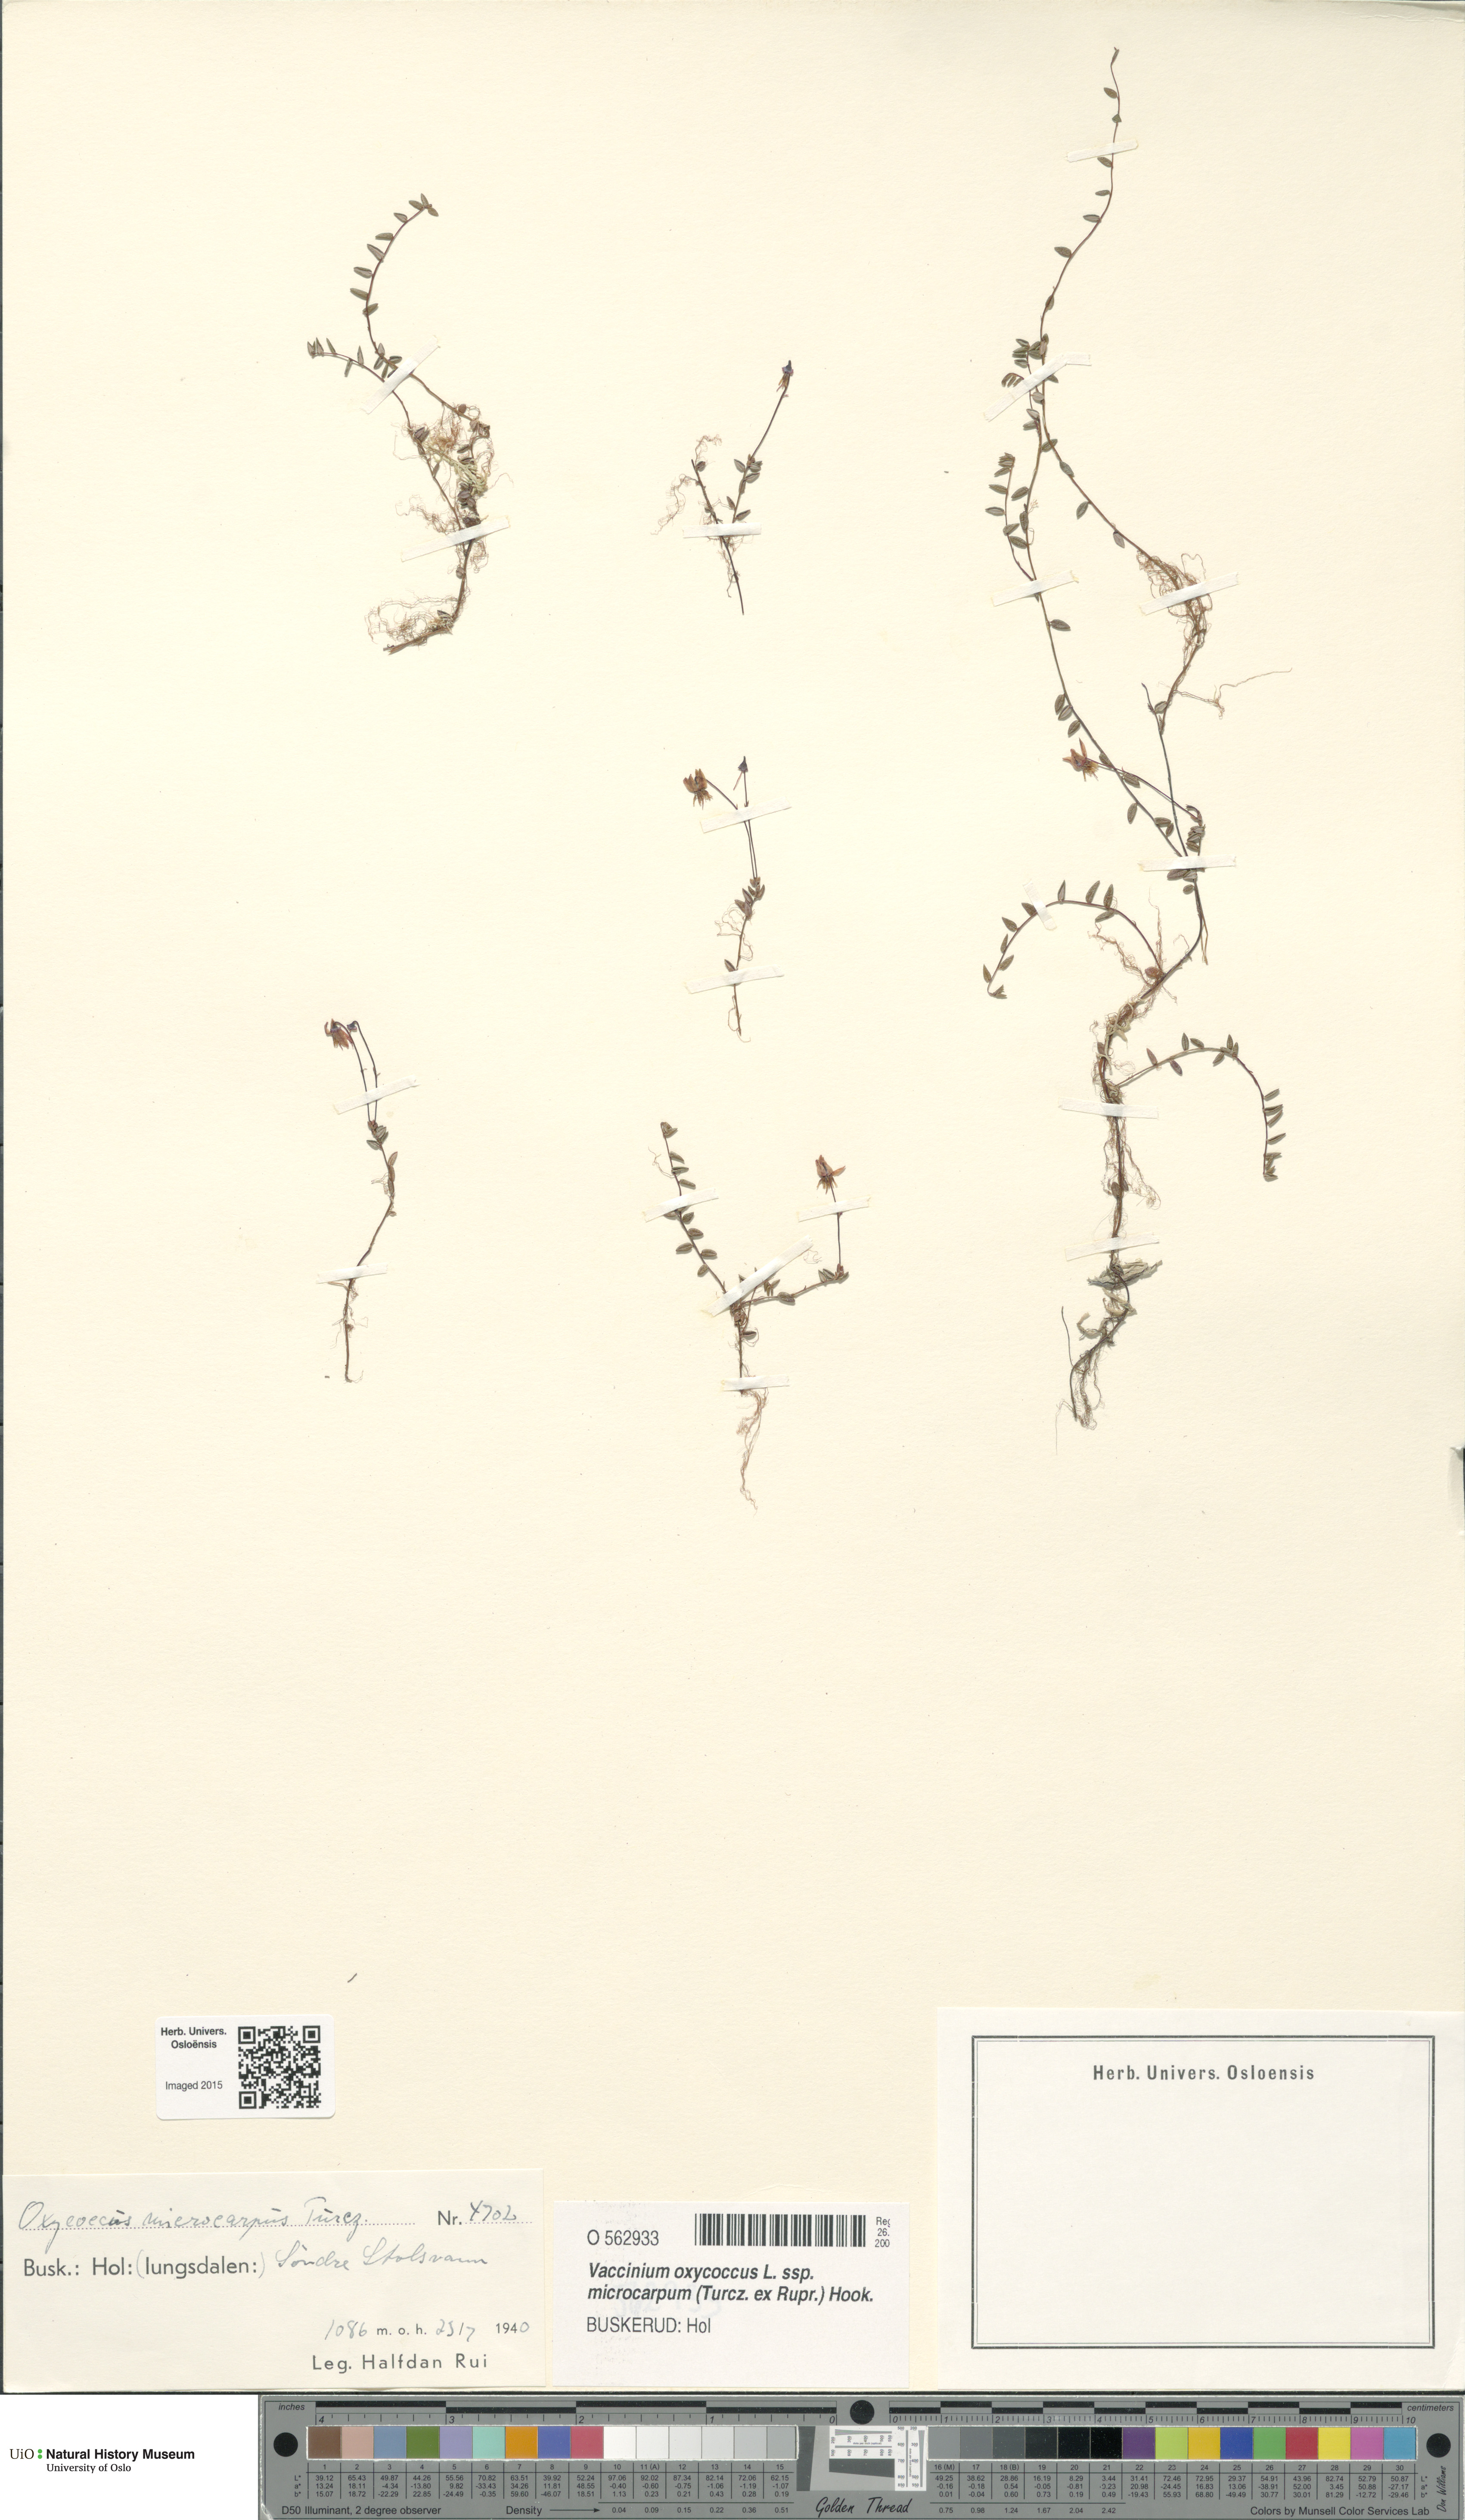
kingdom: Plantae
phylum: Tracheophyta
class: Magnoliopsida
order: Ericales
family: Ericaceae
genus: Vaccinium
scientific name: Vaccinium microcarpum
